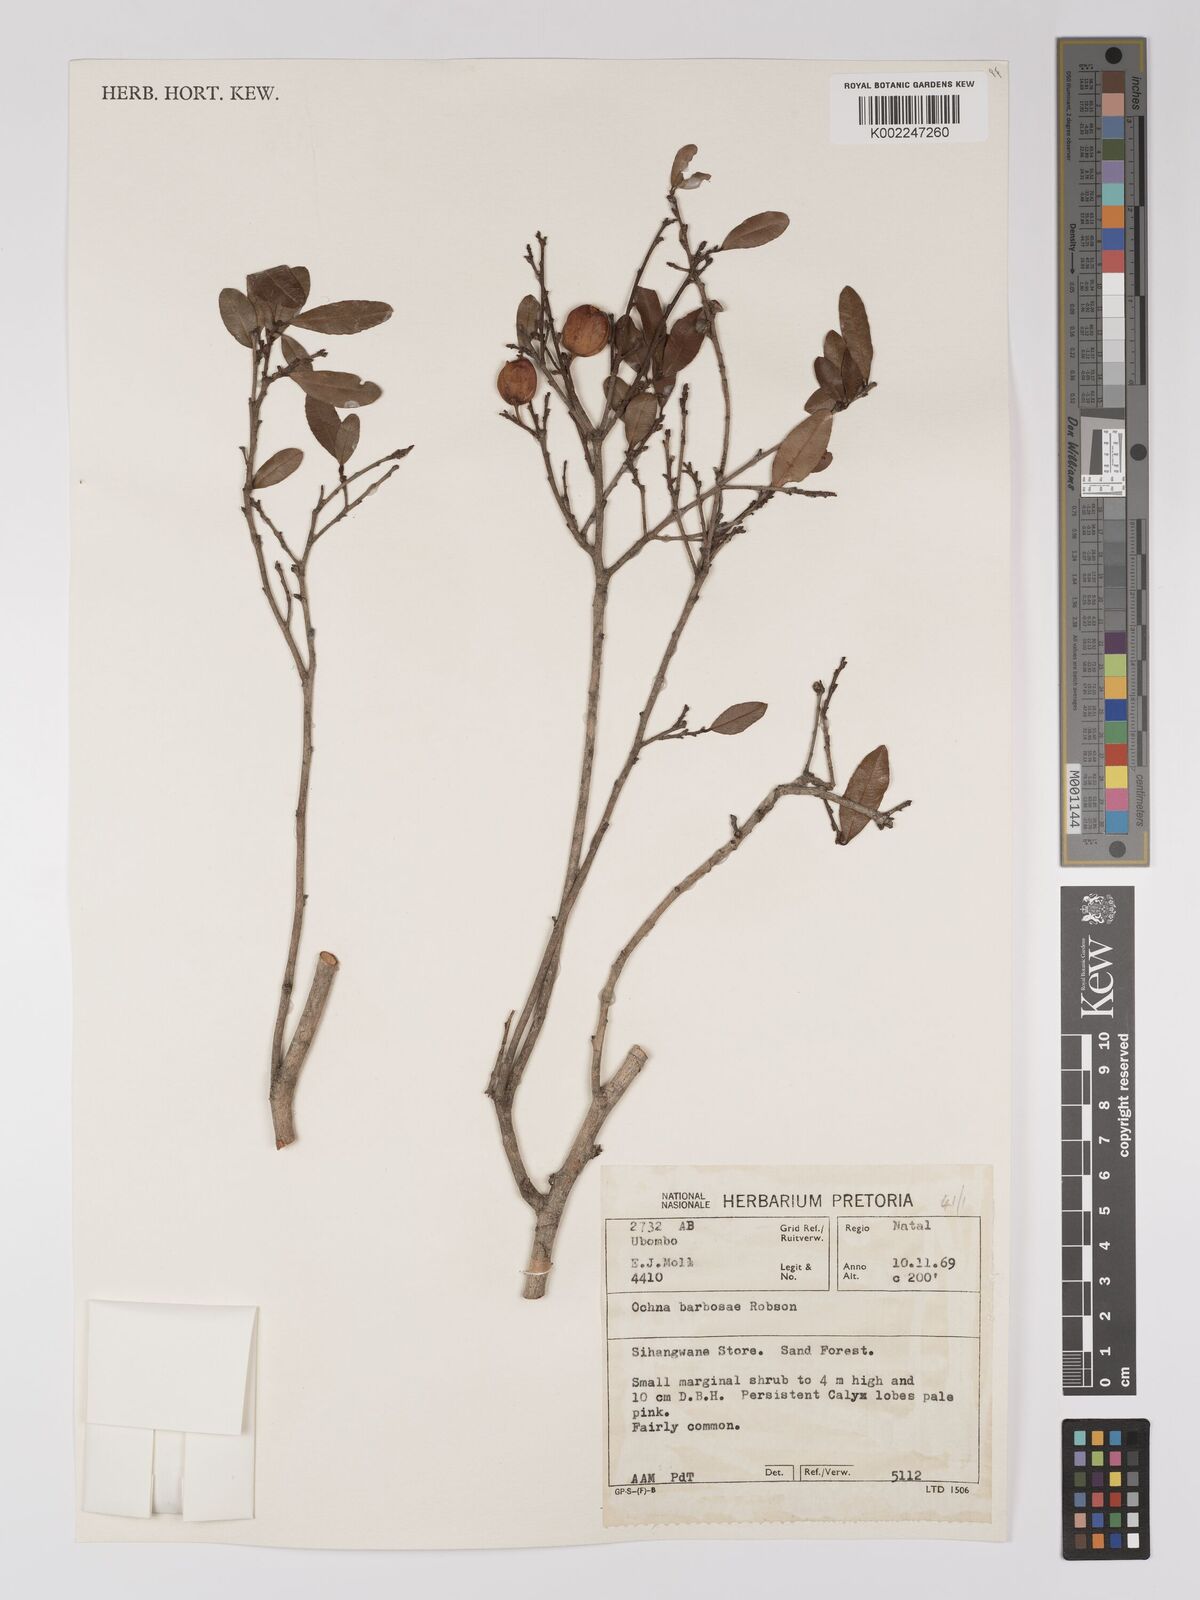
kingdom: Plantae
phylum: Tracheophyta
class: Magnoliopsida
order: Malpighiales
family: Ochnaceae
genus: Ochna
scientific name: Ochna barbosae
